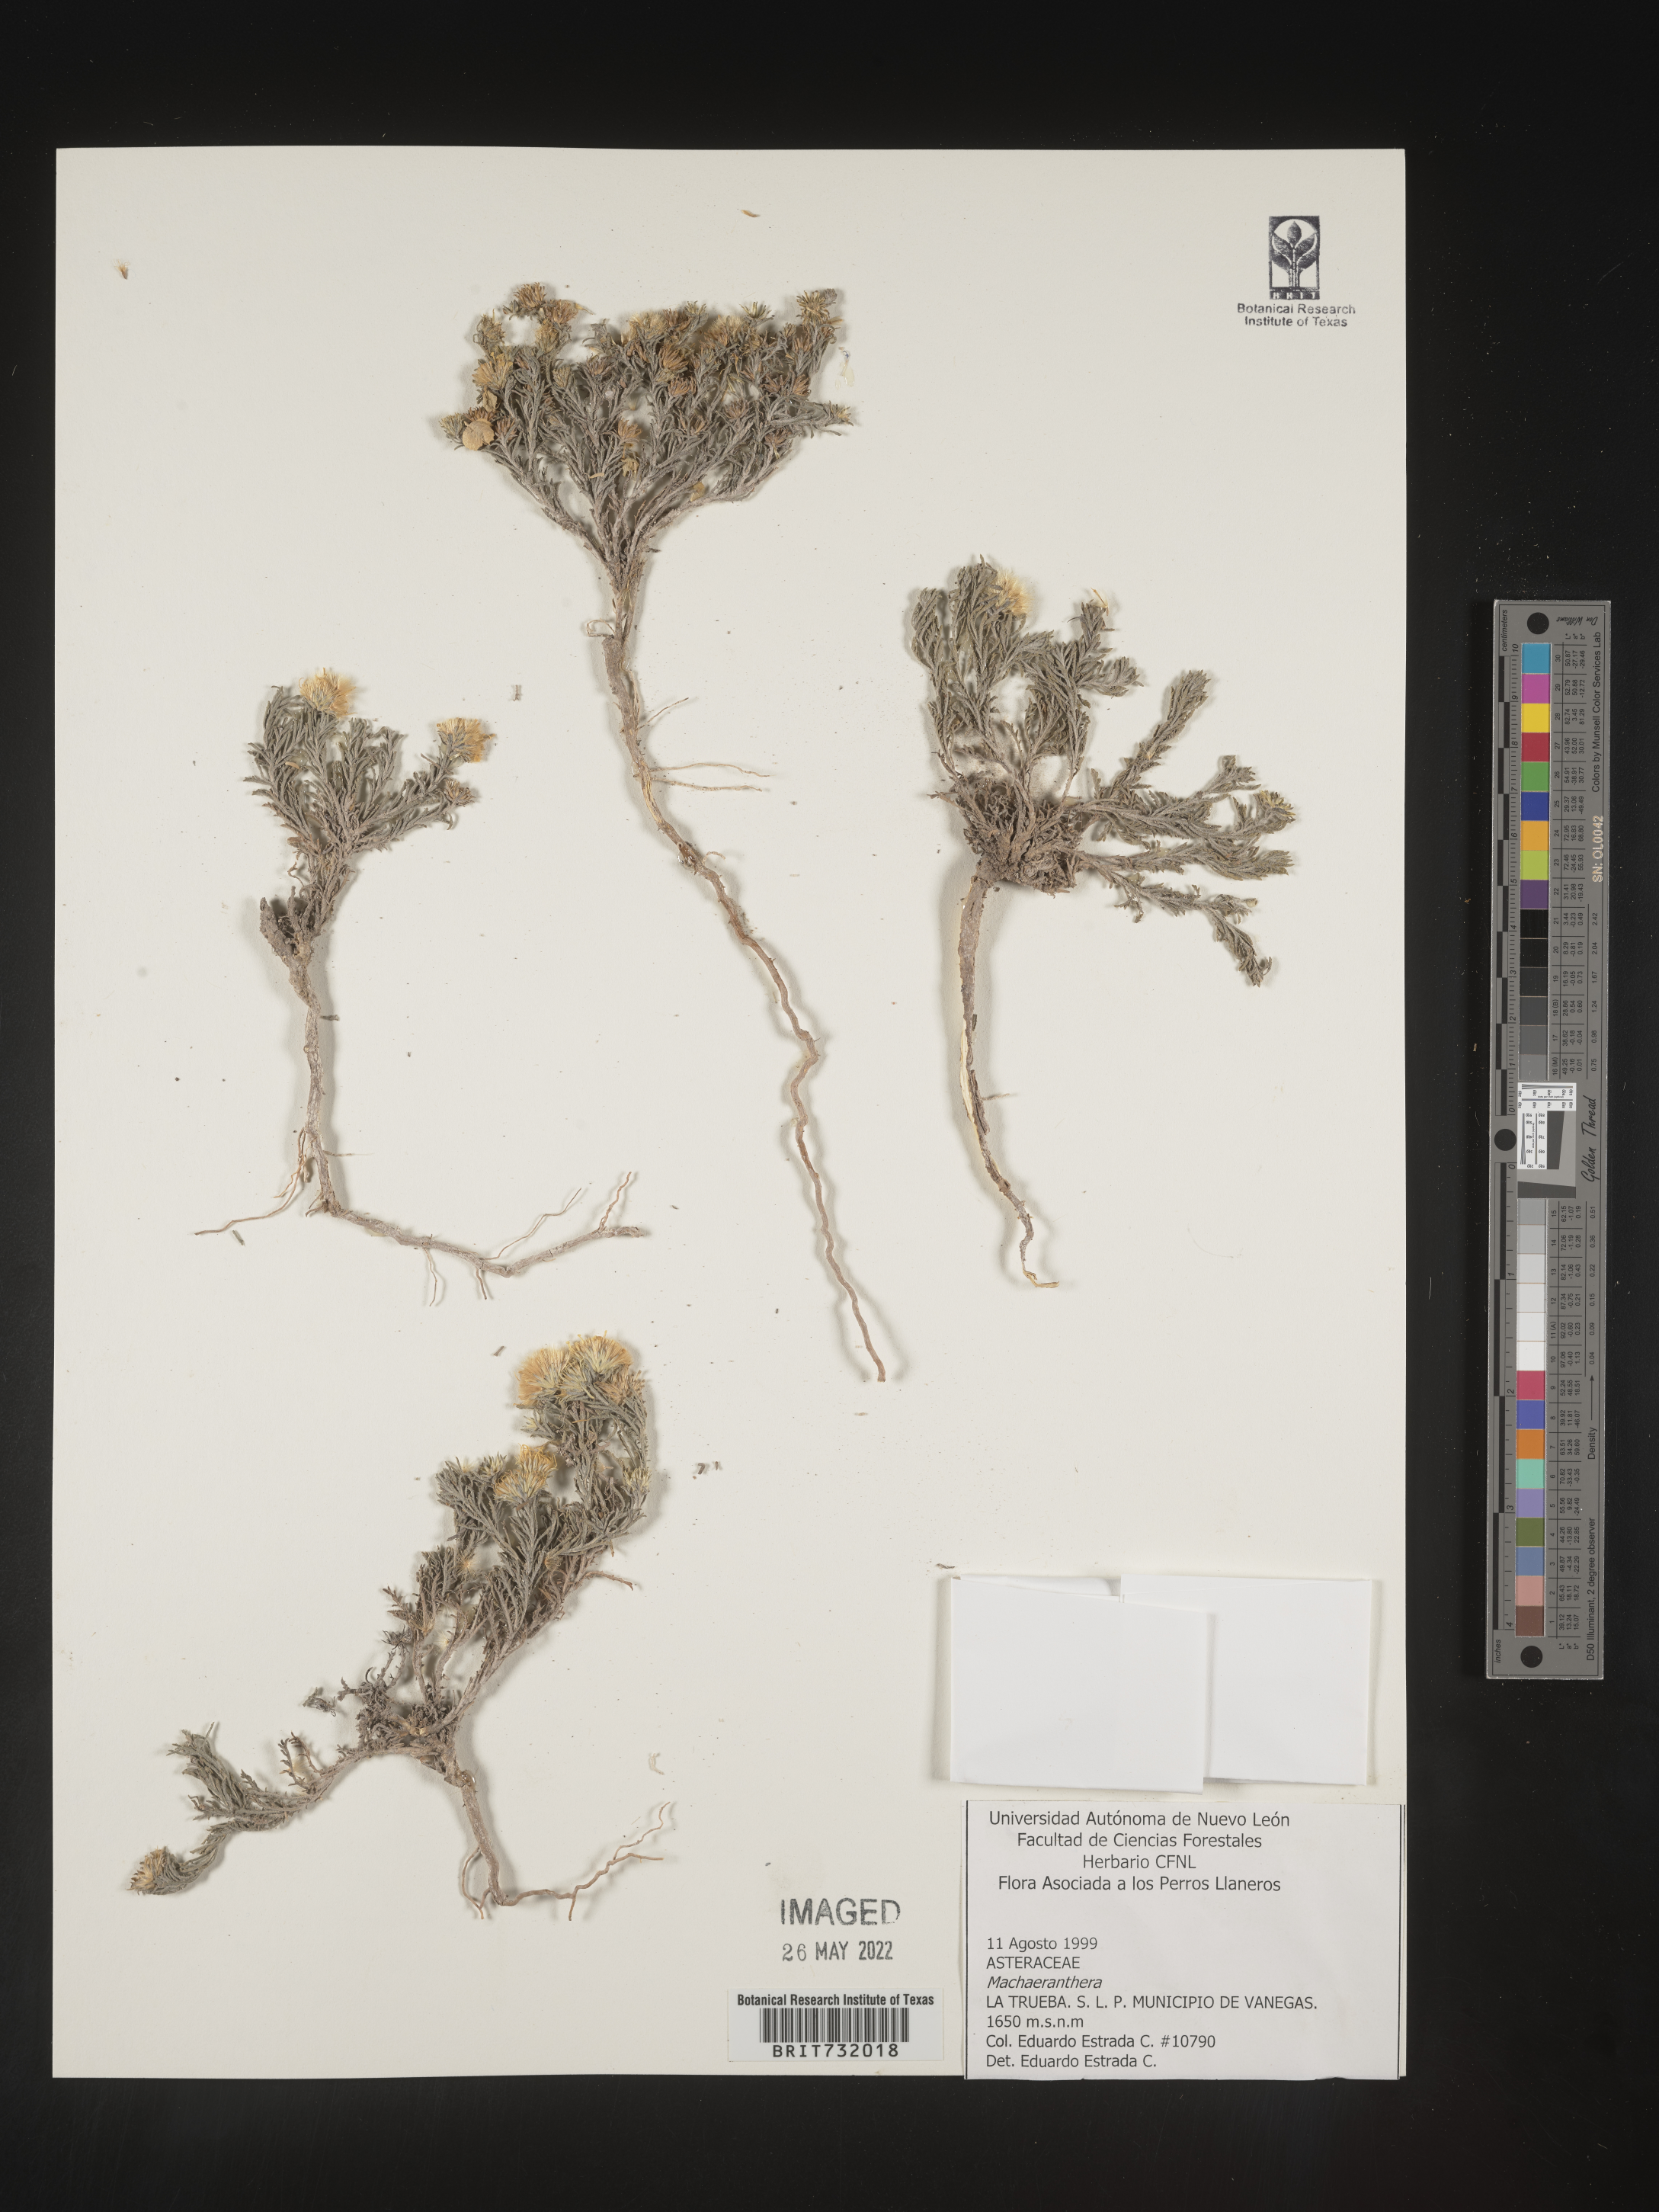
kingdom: Plantae
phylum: Tracheophyta
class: Magnoliopsida
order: Asterales
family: Asteraceae
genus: Machaeranthera
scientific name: Machaeranthera
